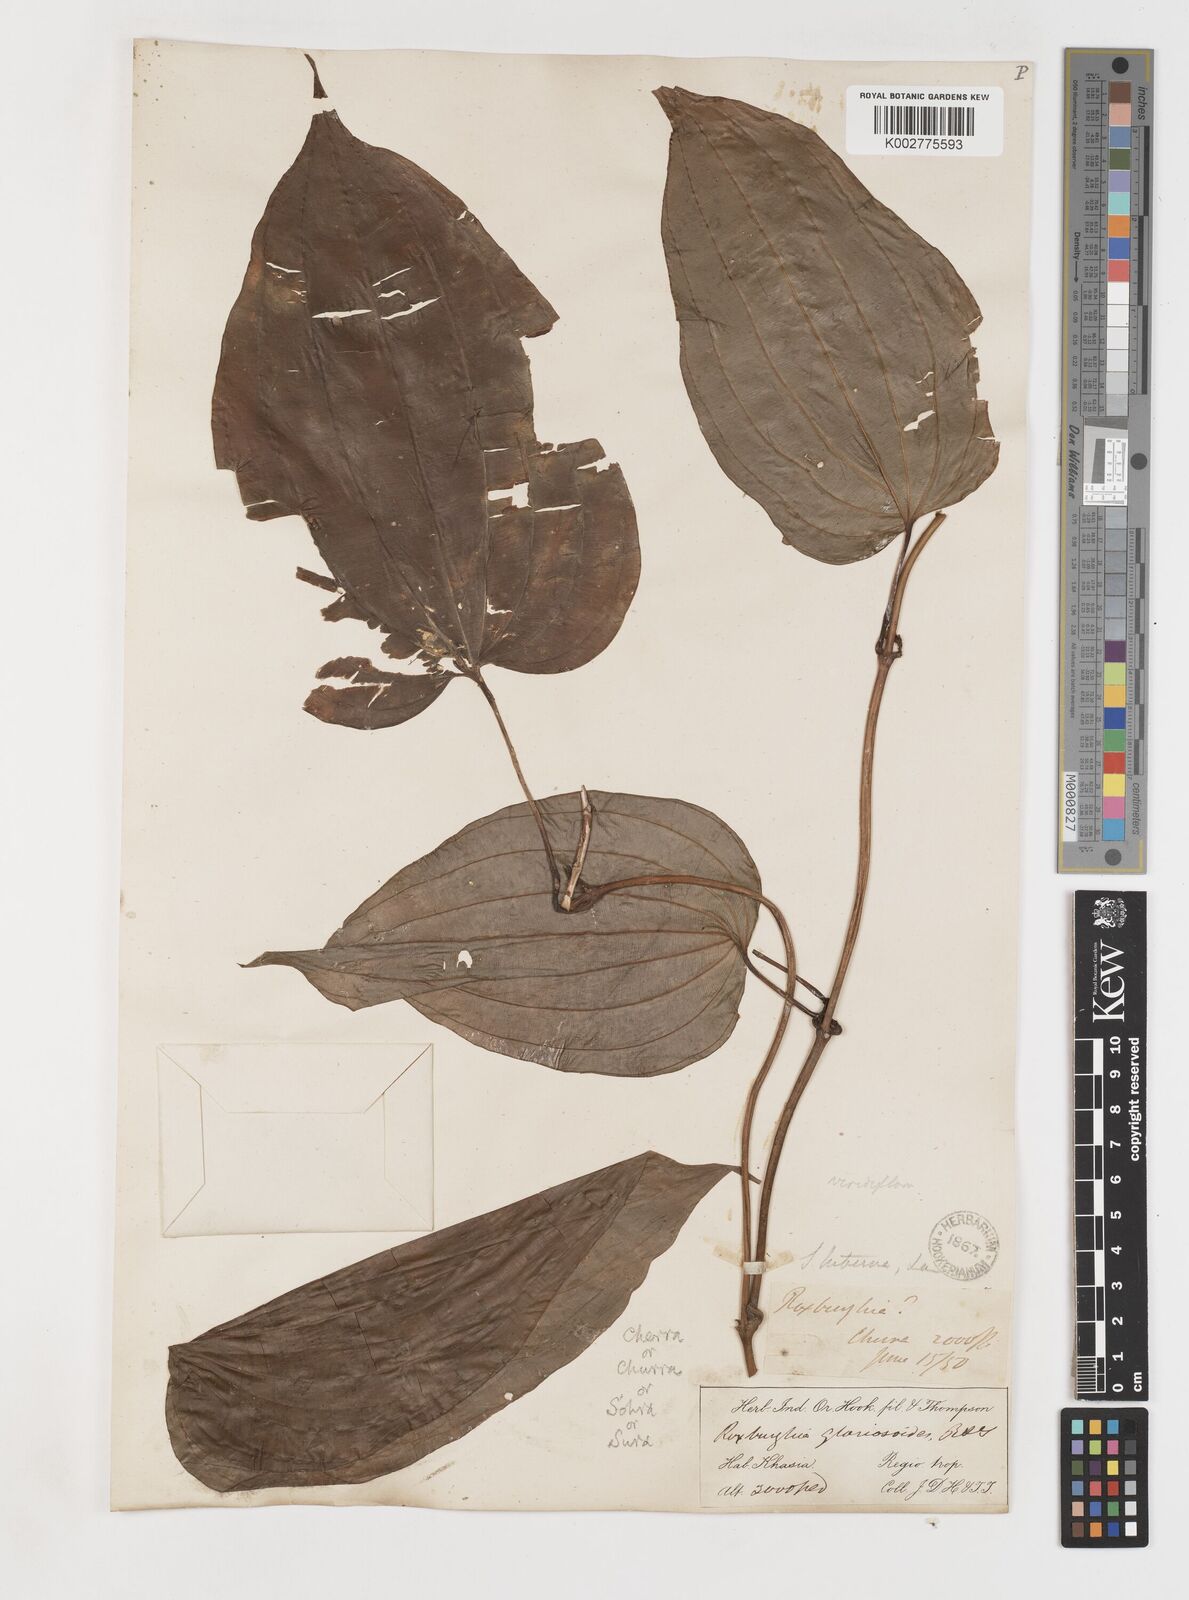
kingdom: Plantae
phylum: Tracheophyta
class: Liliopsida
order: Pandanales
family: Stemonaceae
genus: Stemona
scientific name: Stemona tuberosa
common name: Stemona
